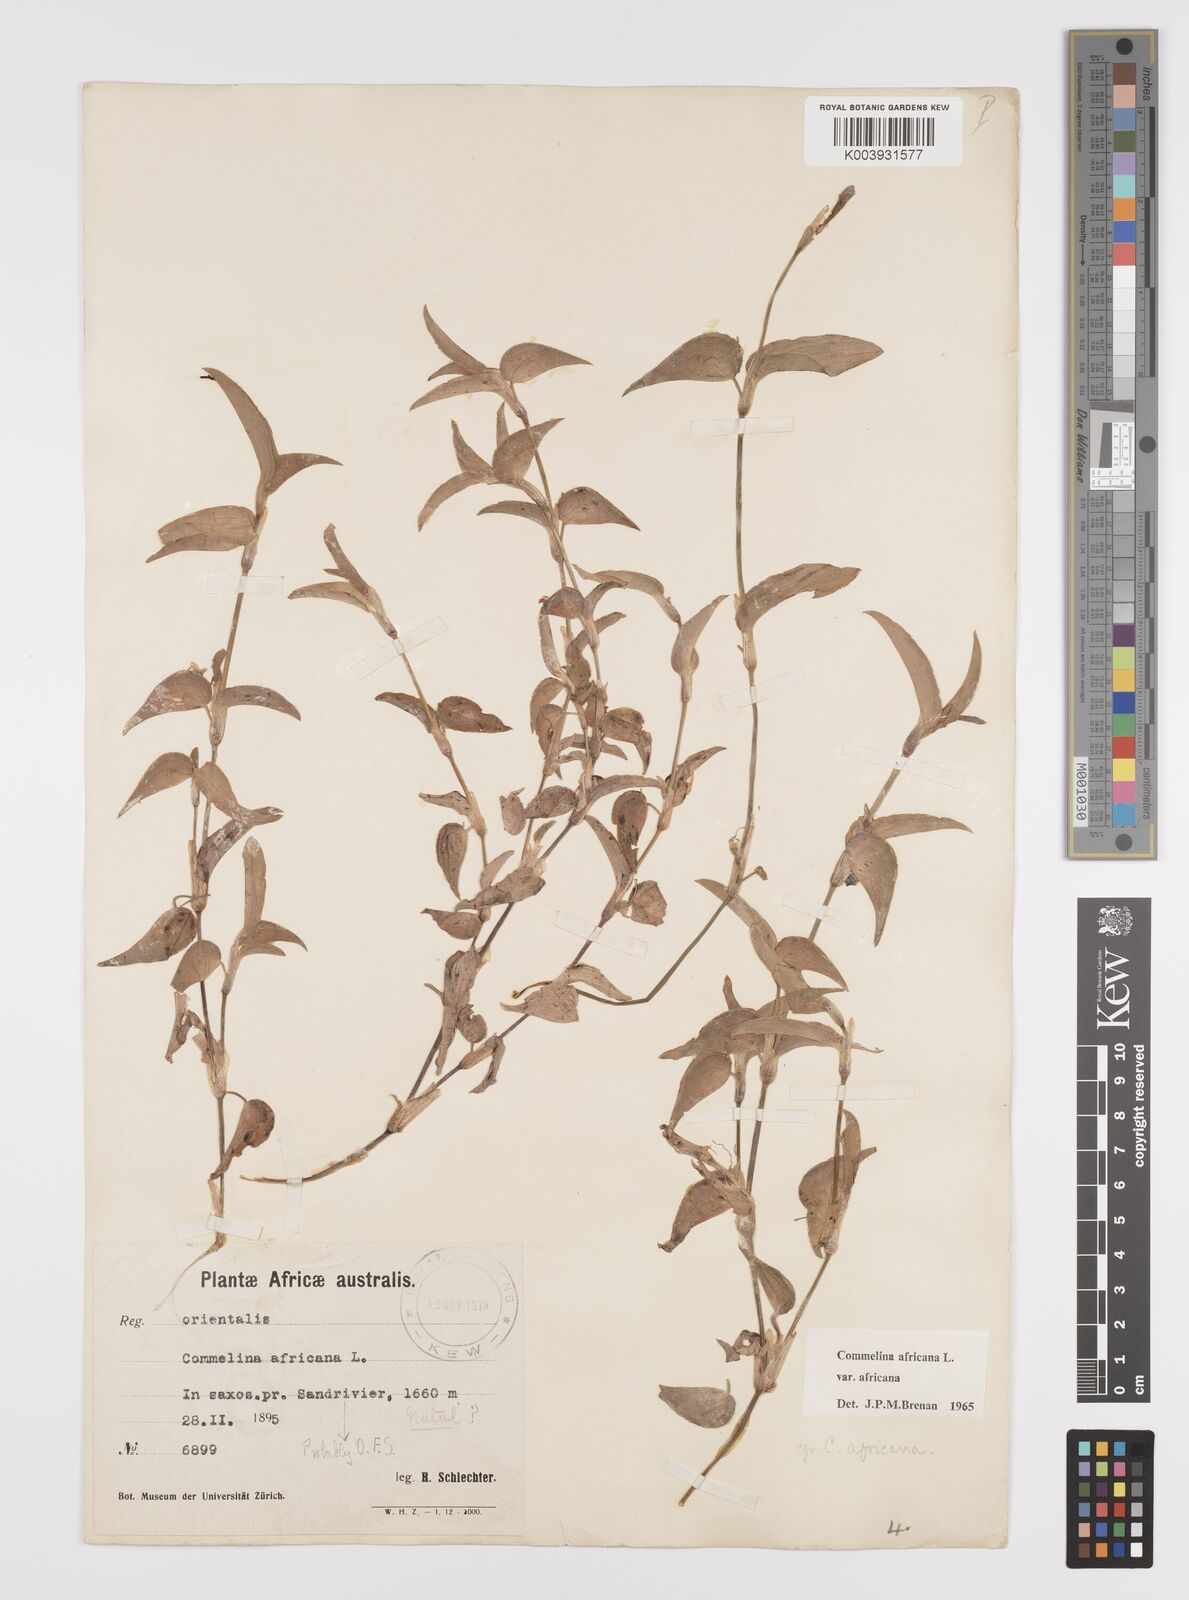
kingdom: Plantae
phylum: Tracheophyta
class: Liliopsida
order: Commelinales
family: Commelinaceae
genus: Commelina
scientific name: Commelina africana
